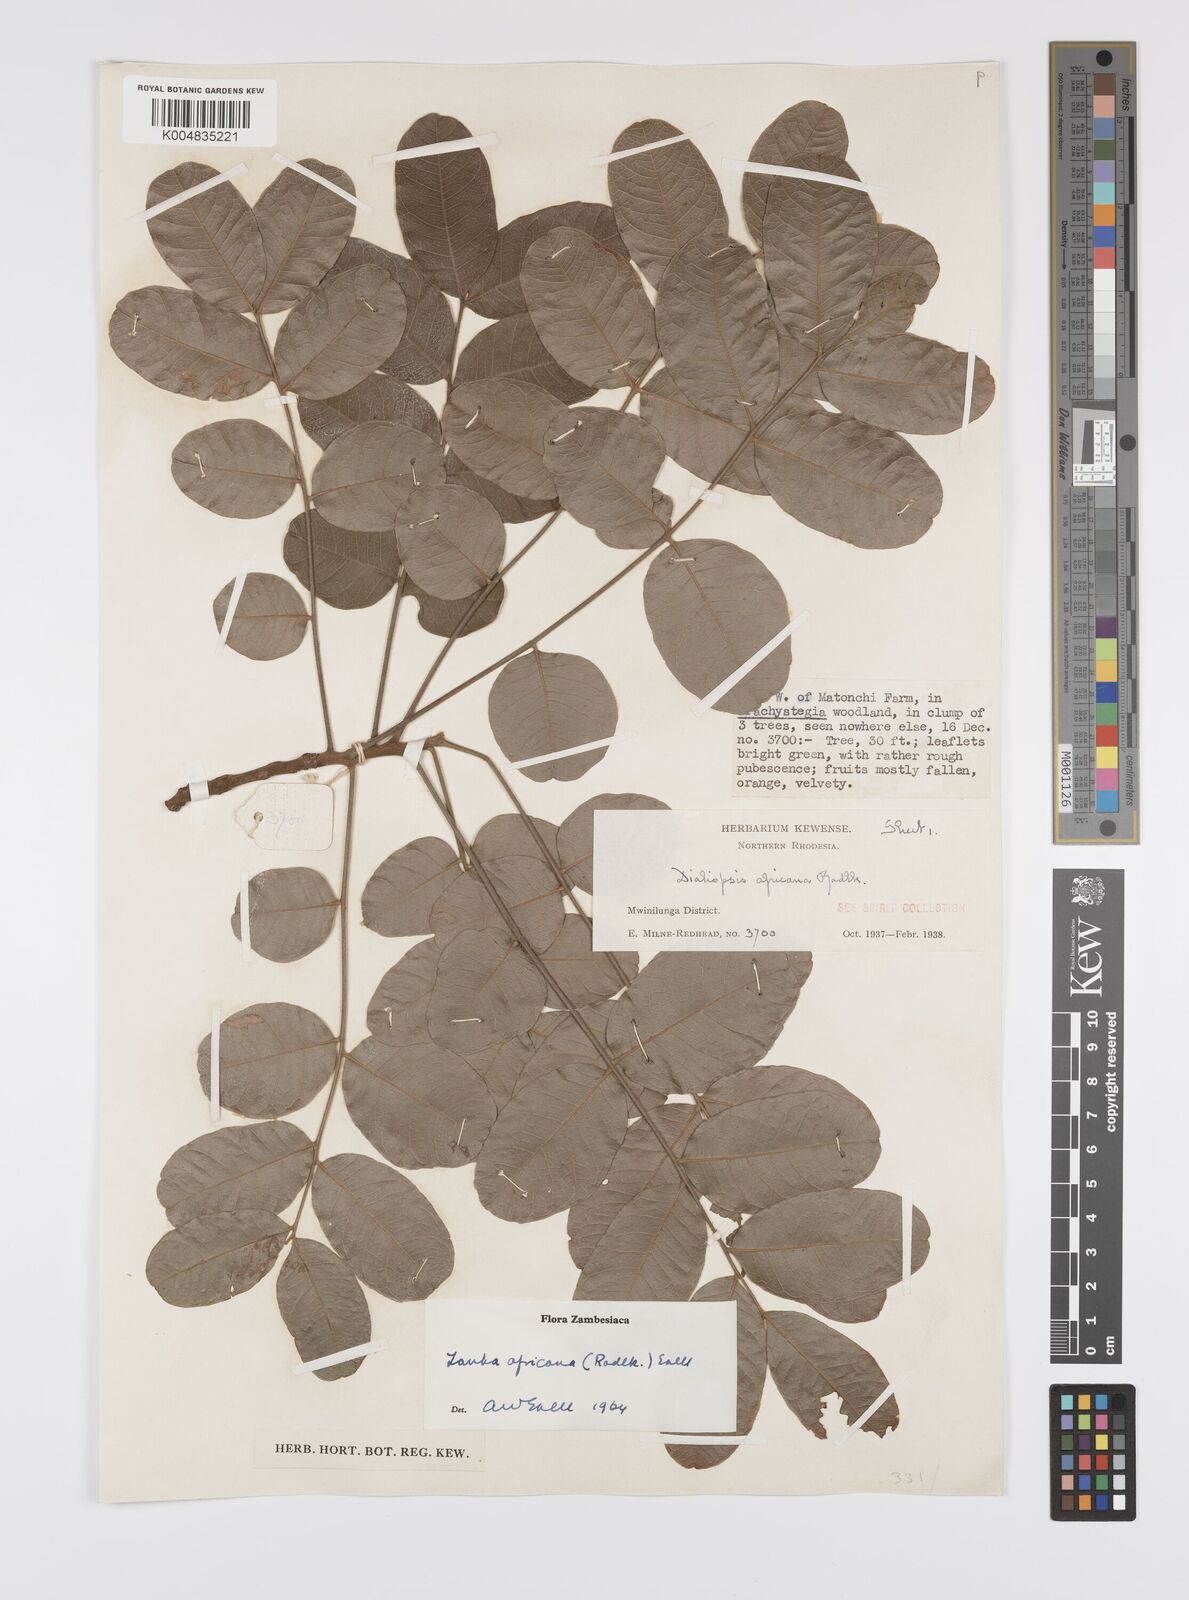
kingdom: Plantae
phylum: Tracheophyta
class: Magnoliopsida
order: Sapindales
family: Sapindaceae
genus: Zanha
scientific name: Zanha africana
